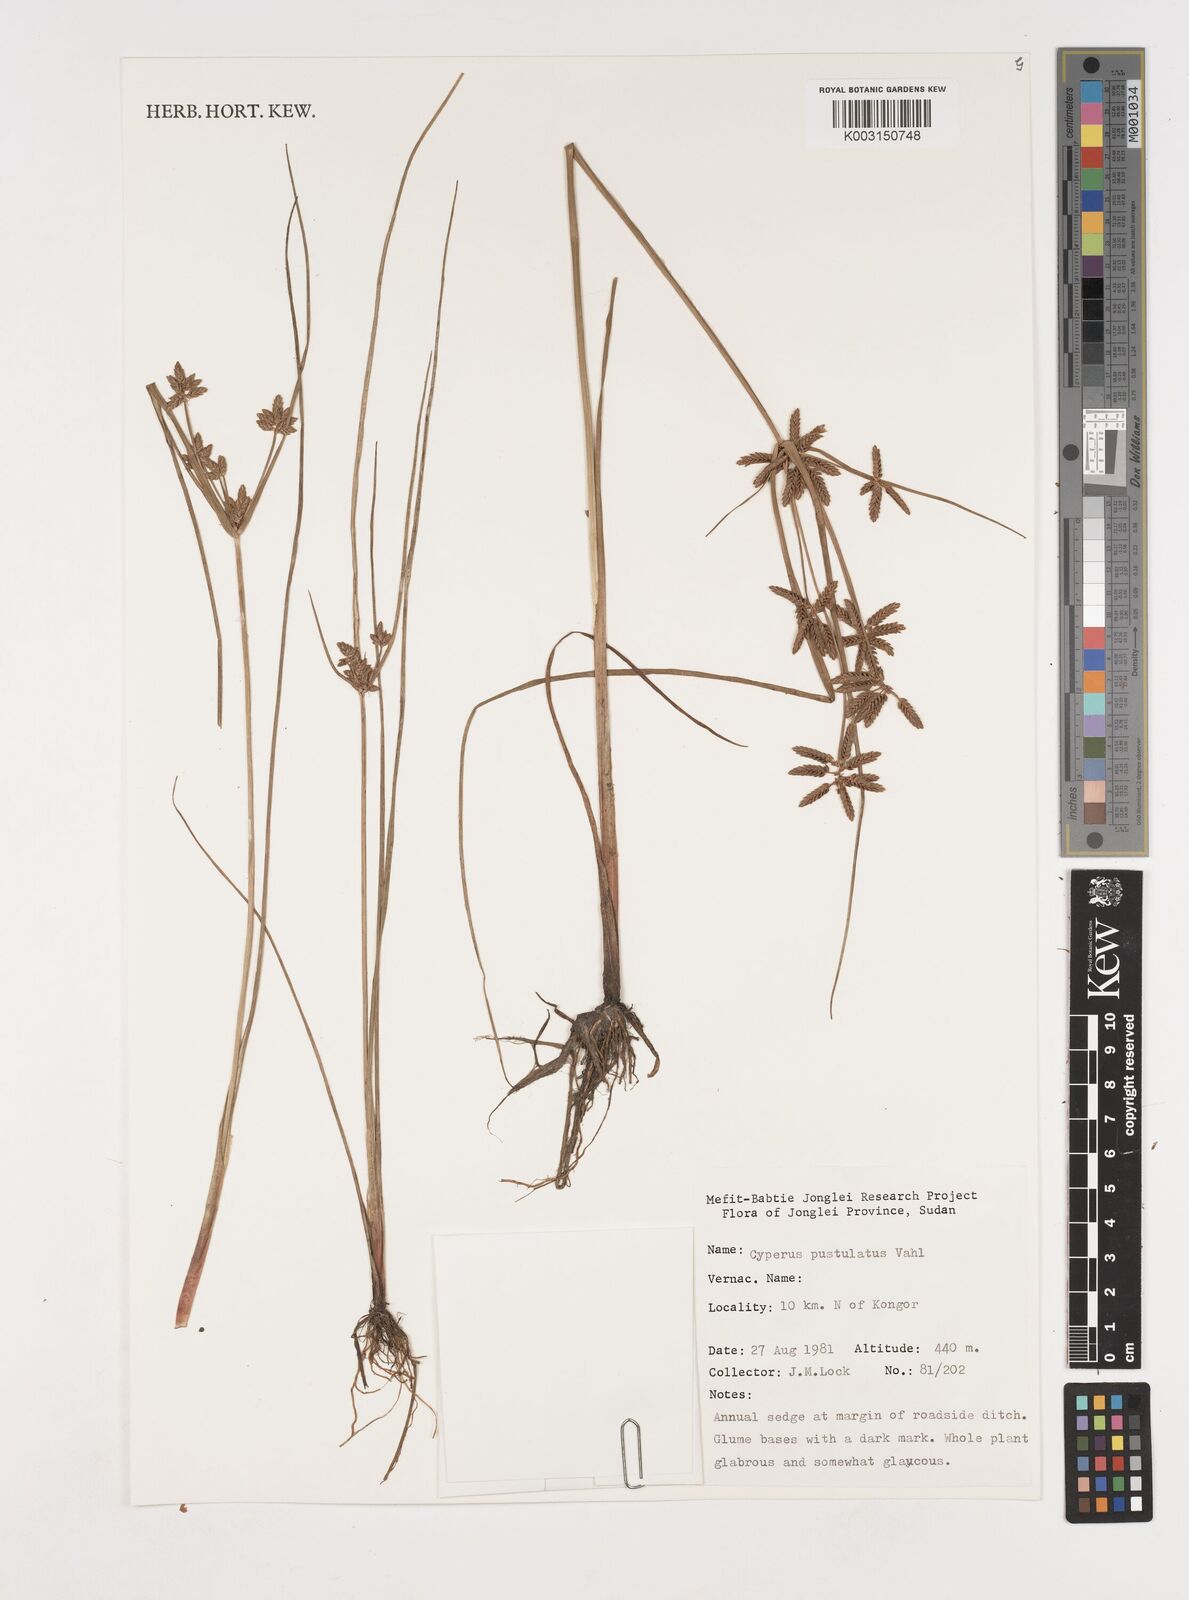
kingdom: Plantae
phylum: Tracheophyta
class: Liliopsida
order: Poales
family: Cyperaceae
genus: Cyperus
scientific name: Cyperus pustulatus
